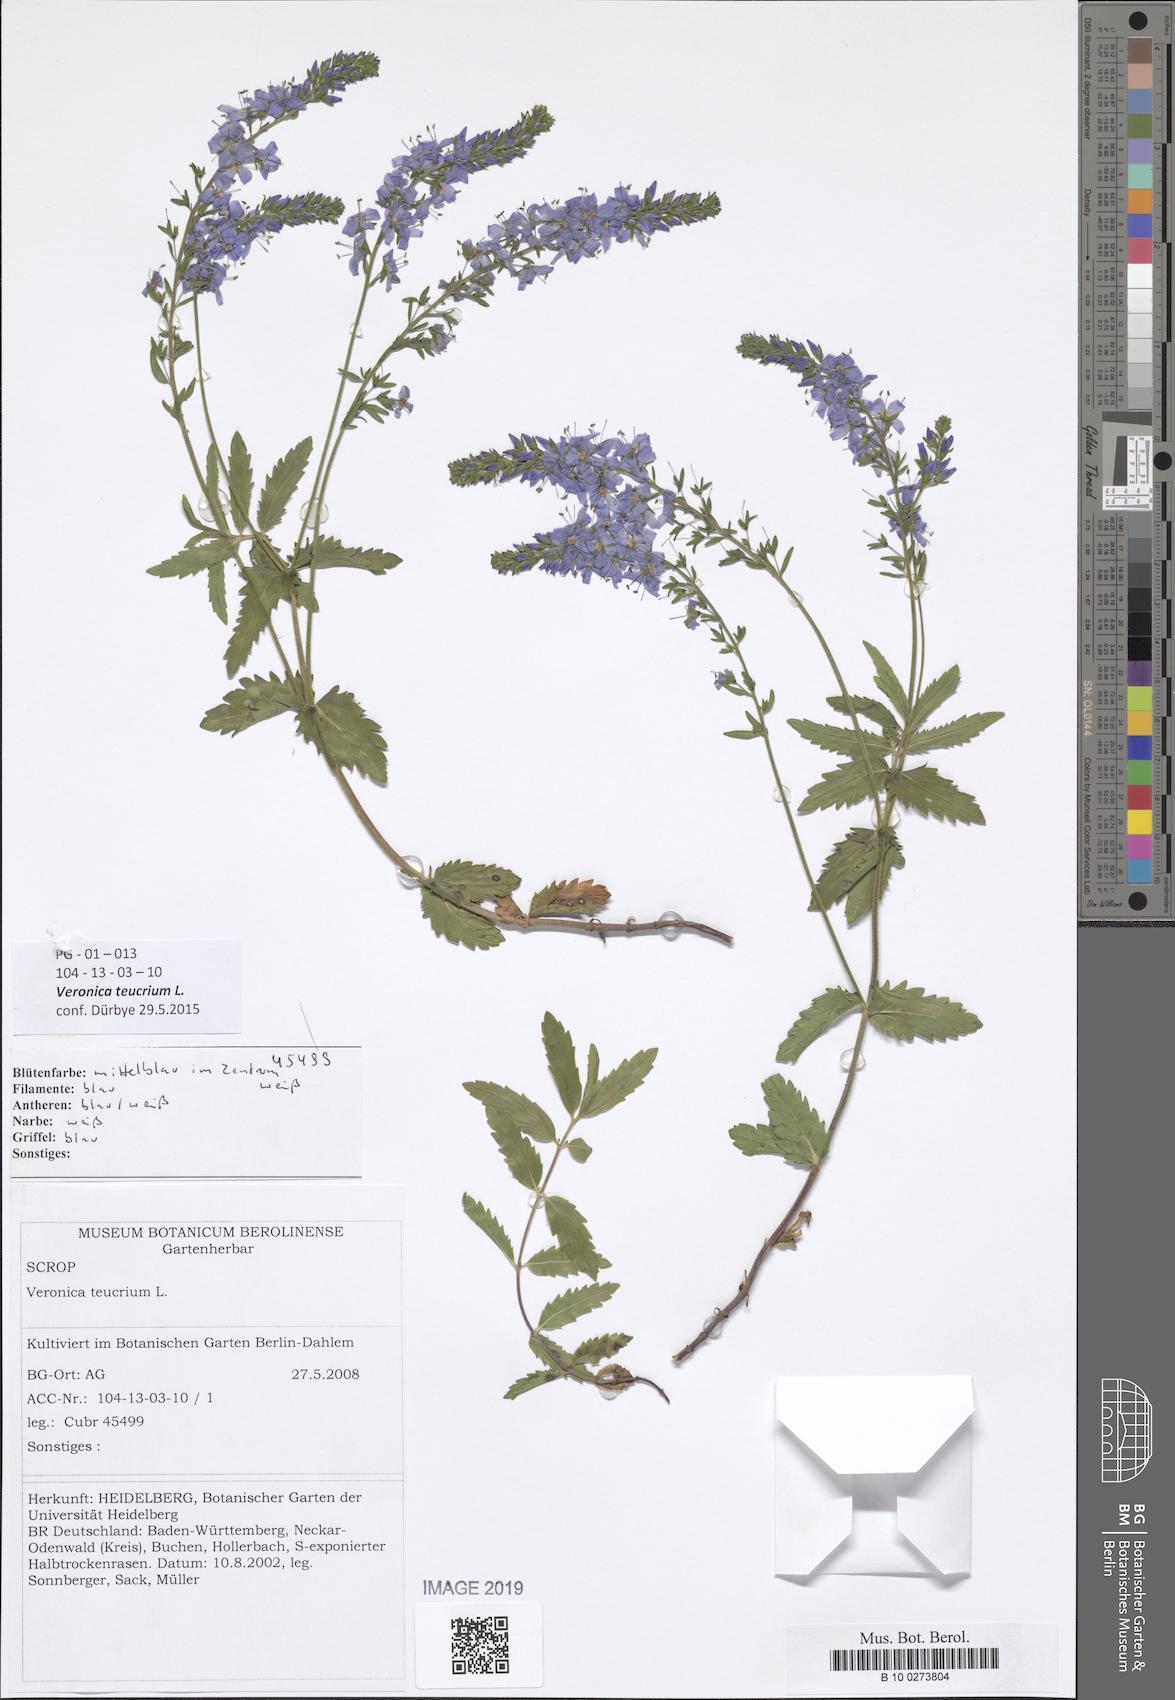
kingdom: Plantae
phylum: Tracheophyta
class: Magnoliopsida
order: Lamiales
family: Plantaginaceae
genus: Veronica
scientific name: Veronica teucrium
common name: Large speedwell
